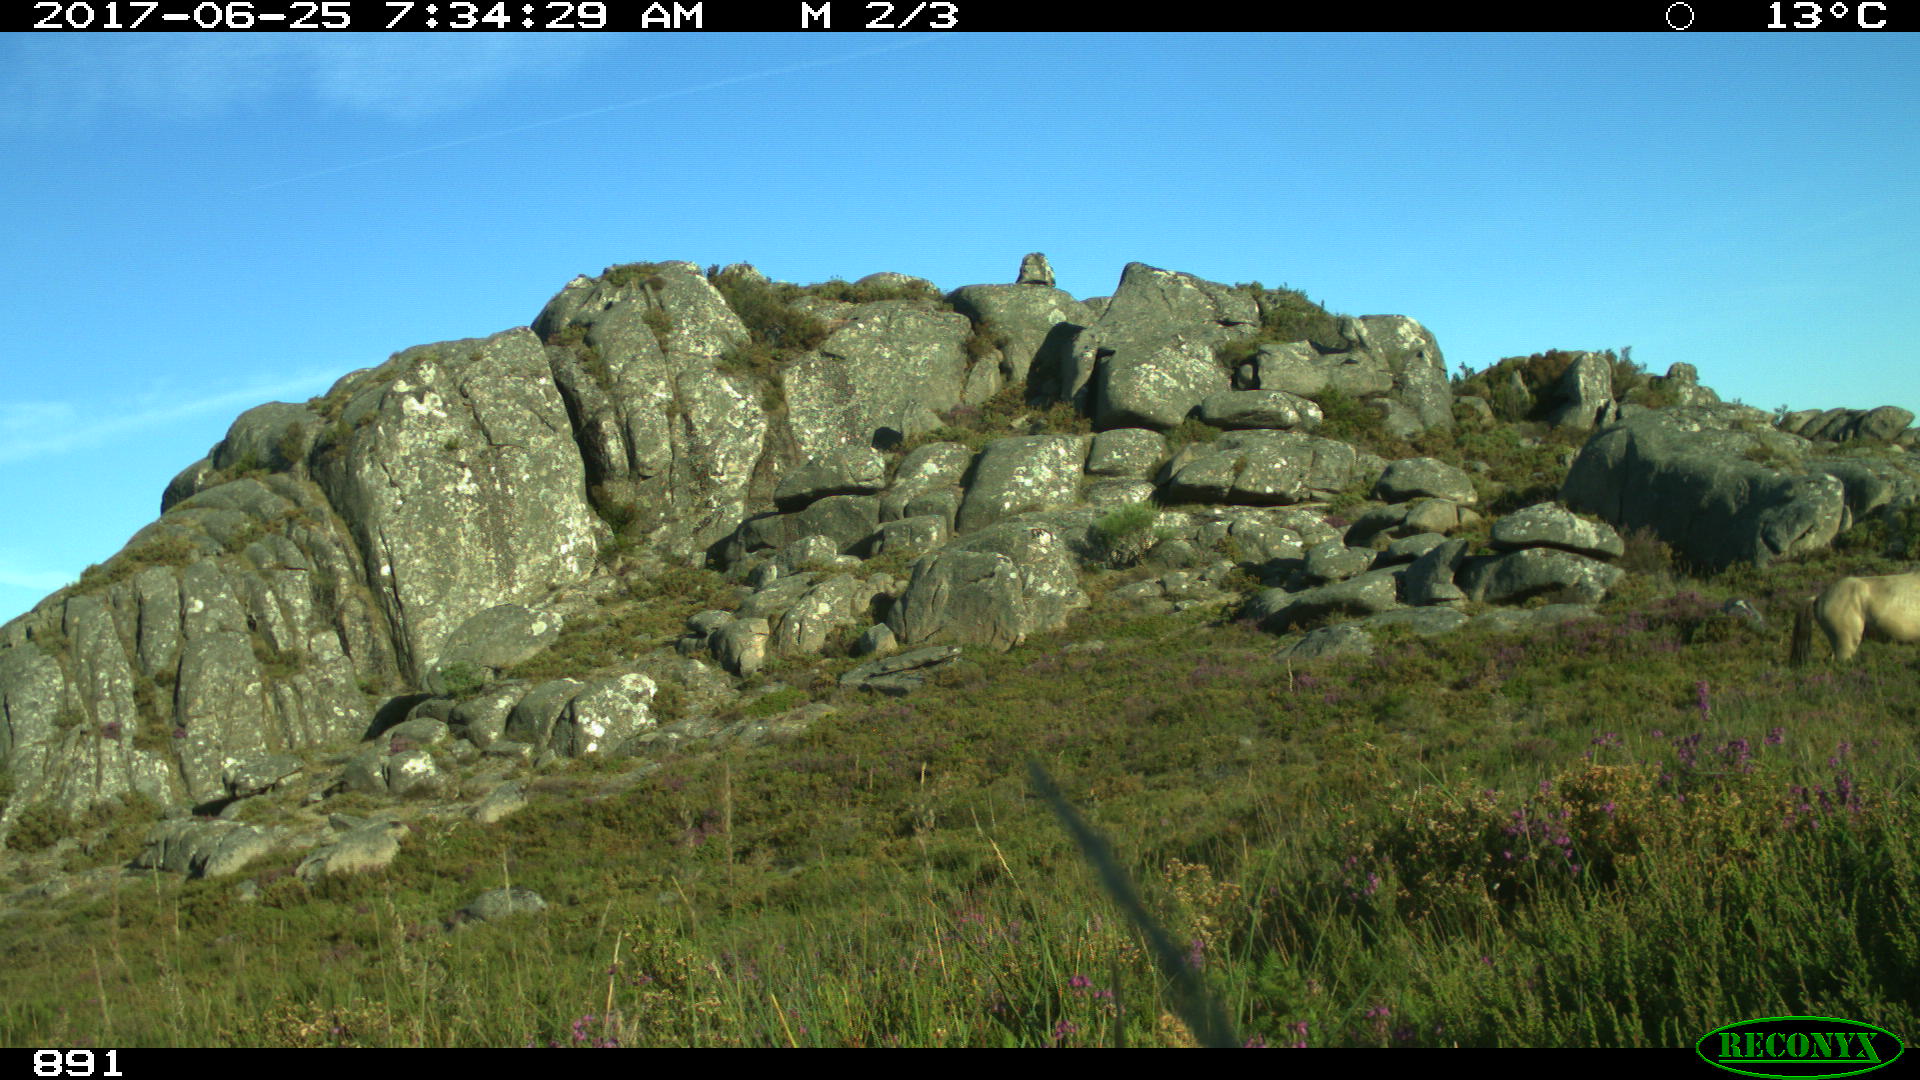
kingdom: Animalia
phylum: Chordata
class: Mammalia
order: Perissodactyla
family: Equidae
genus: Equus
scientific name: Equus caballus
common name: Horse
